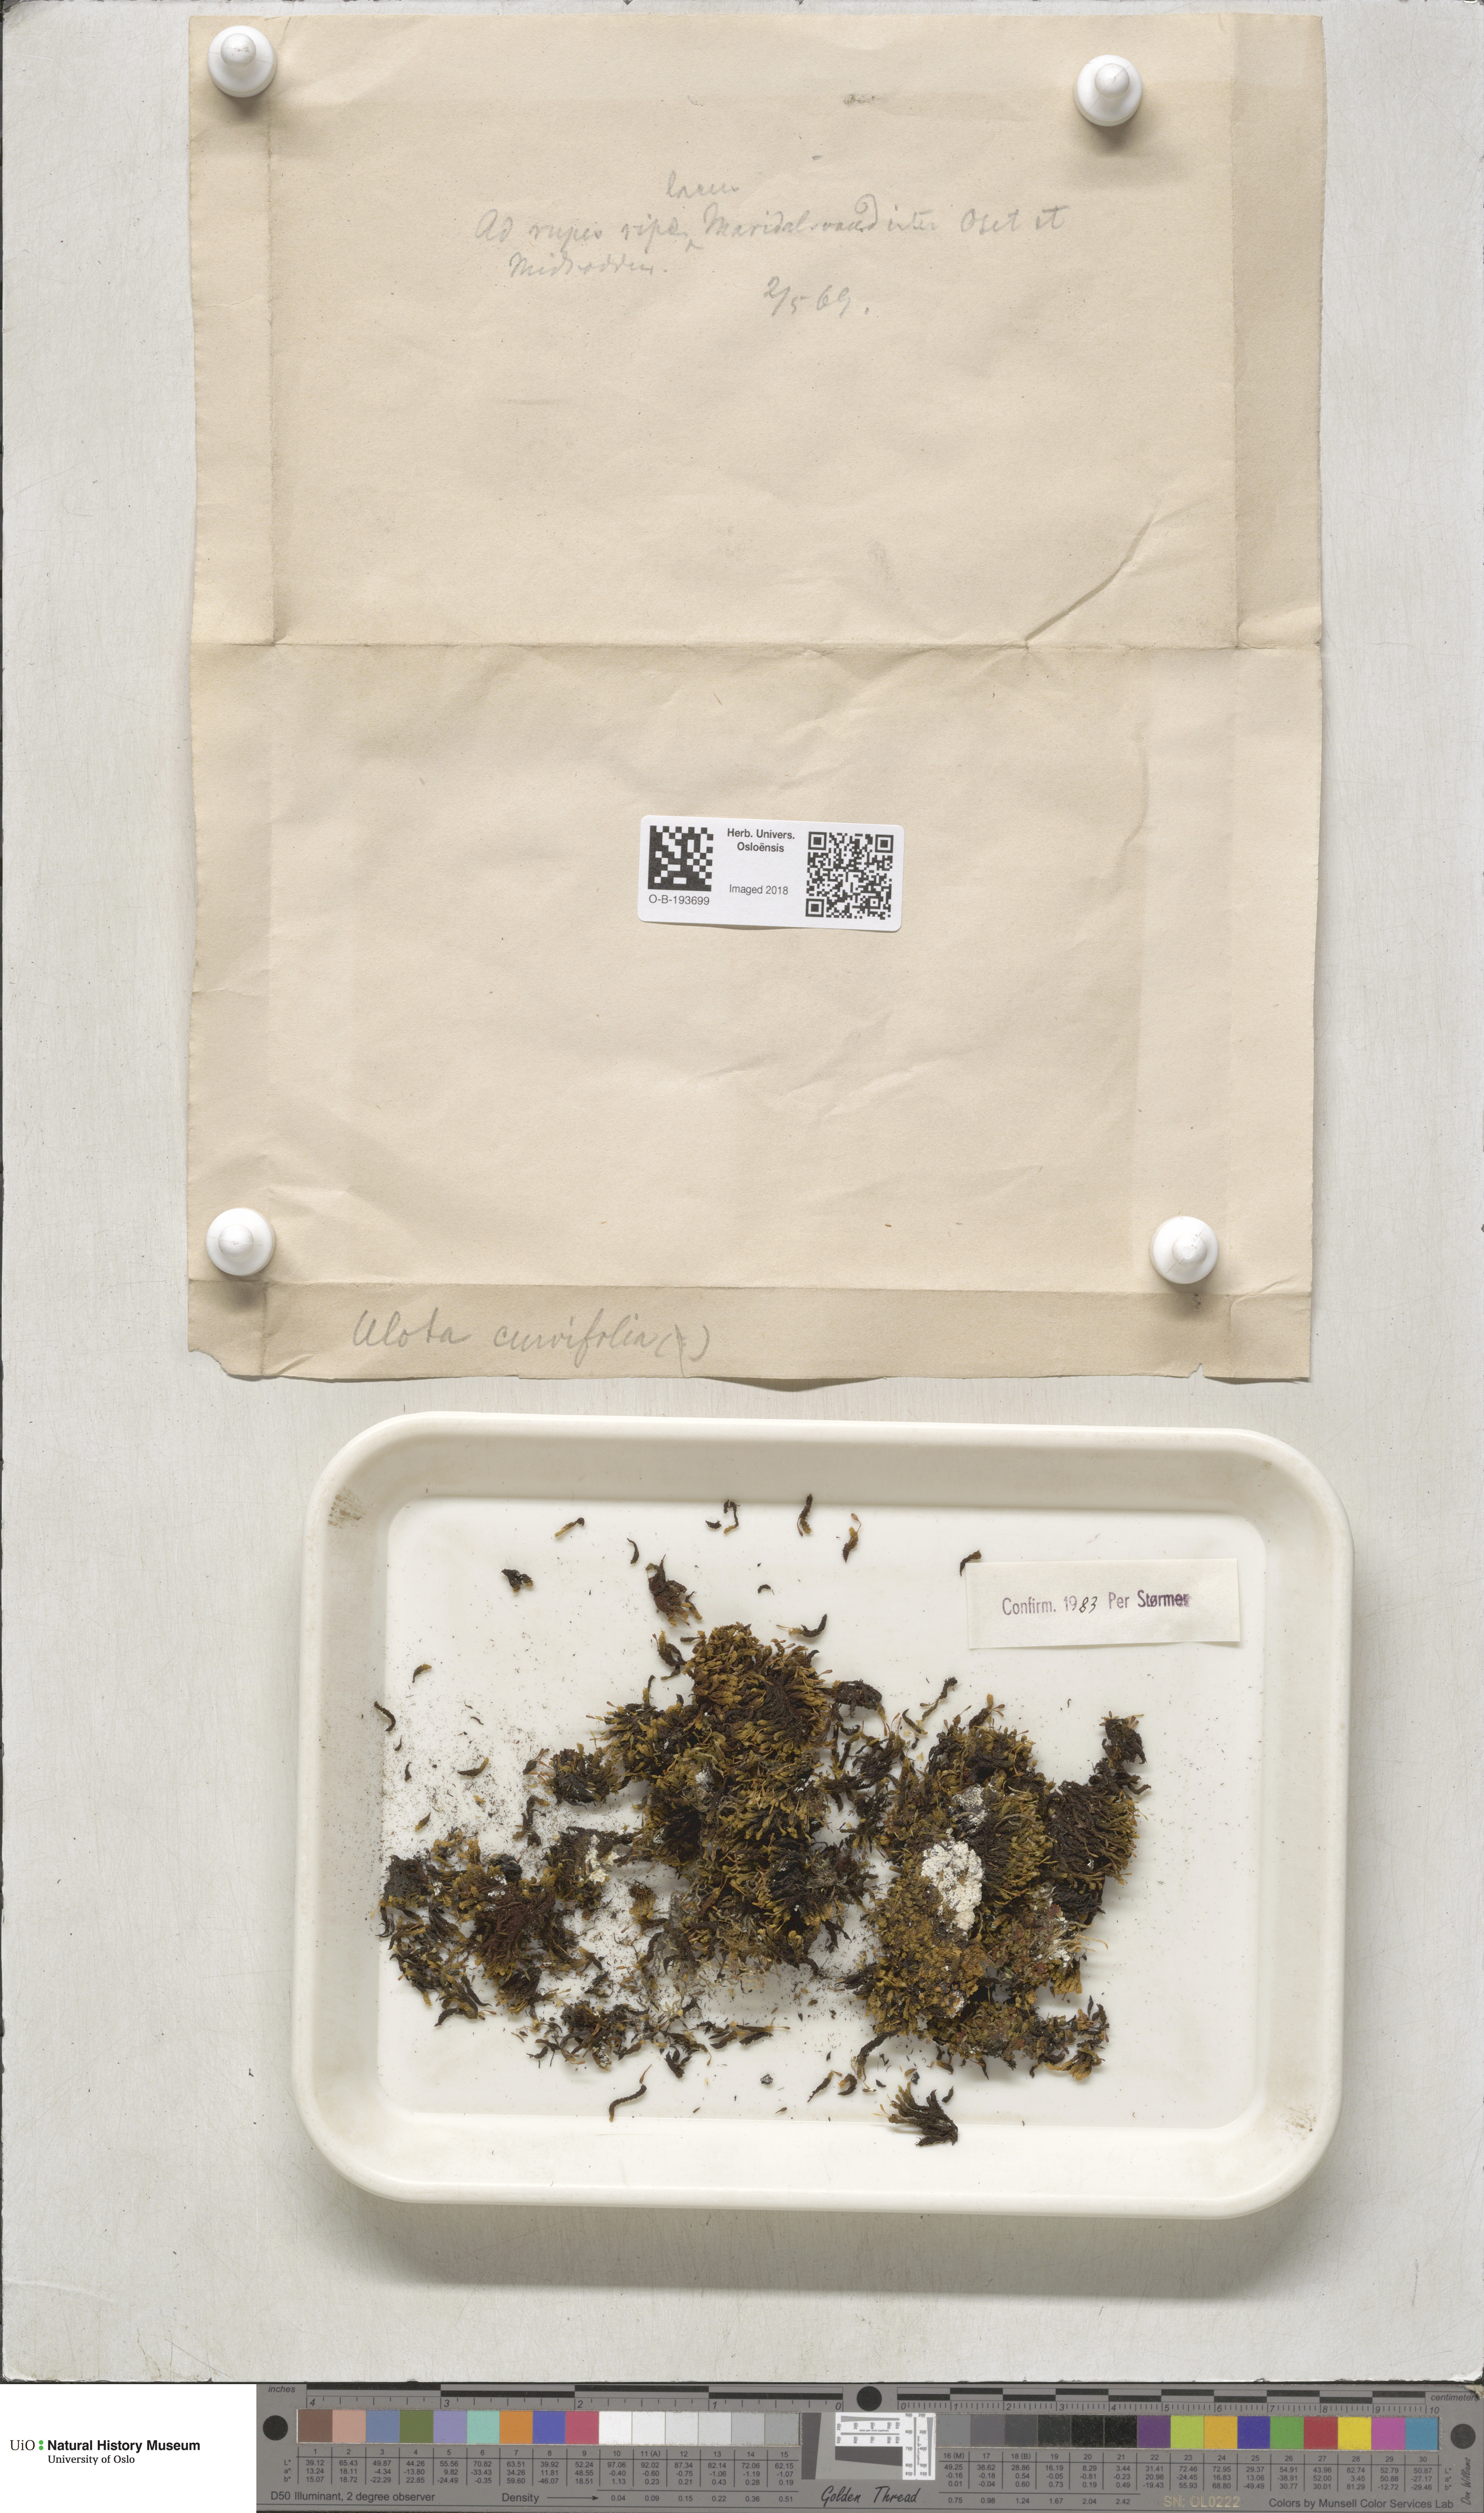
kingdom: Plantae
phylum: Bryophyta
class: Bryopsida
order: Orthotrichales
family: Orthotrichaceae
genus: Ulota
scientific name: Ulota curvifolia
